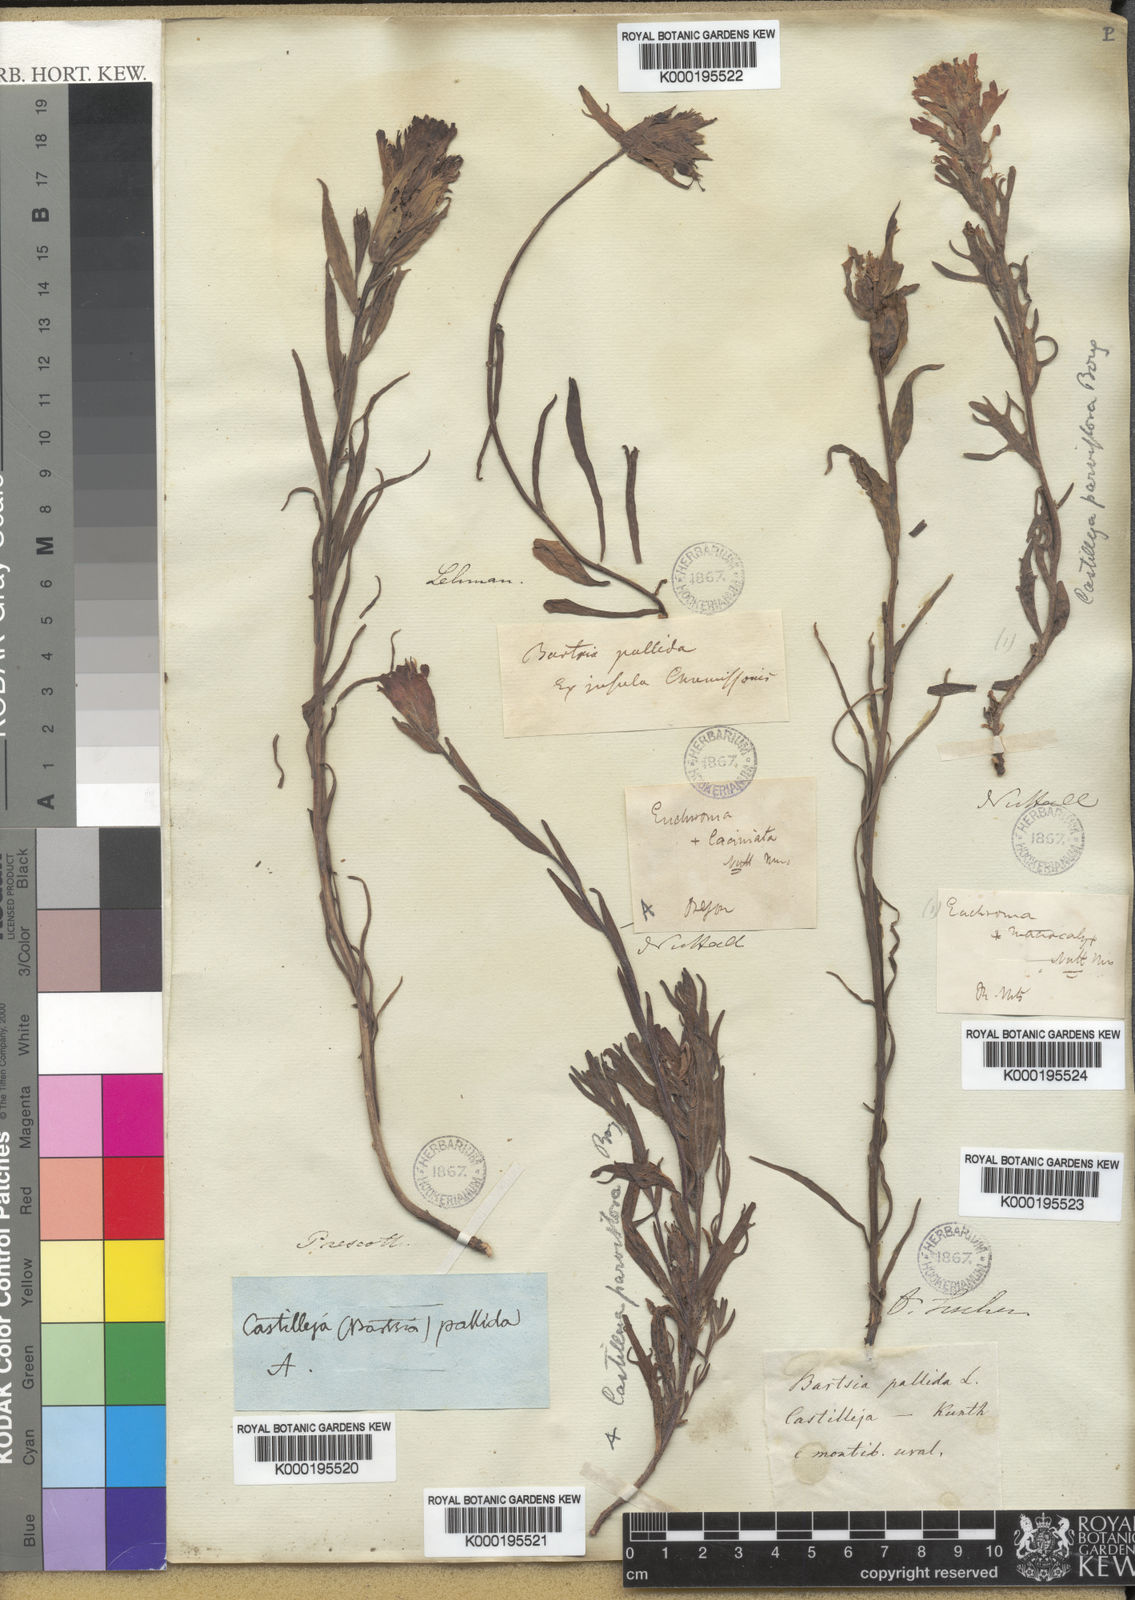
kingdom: Plantae
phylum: Tracheophyta
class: Magnoliopsida
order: Lamiales
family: Orobanchaceae
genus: Castilleja
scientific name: Castilleja hispida
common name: Bristly paintbrush
